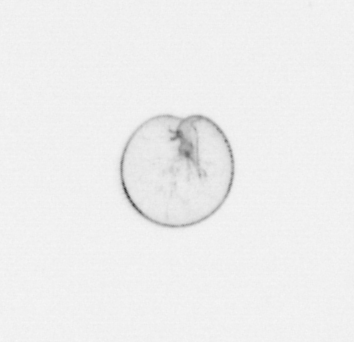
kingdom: Chromista
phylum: Myzozoa
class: Dinophyceae
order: Noctilucales
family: Noctilucaceae
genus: Noctiluca
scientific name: Noctiluca scintillans
